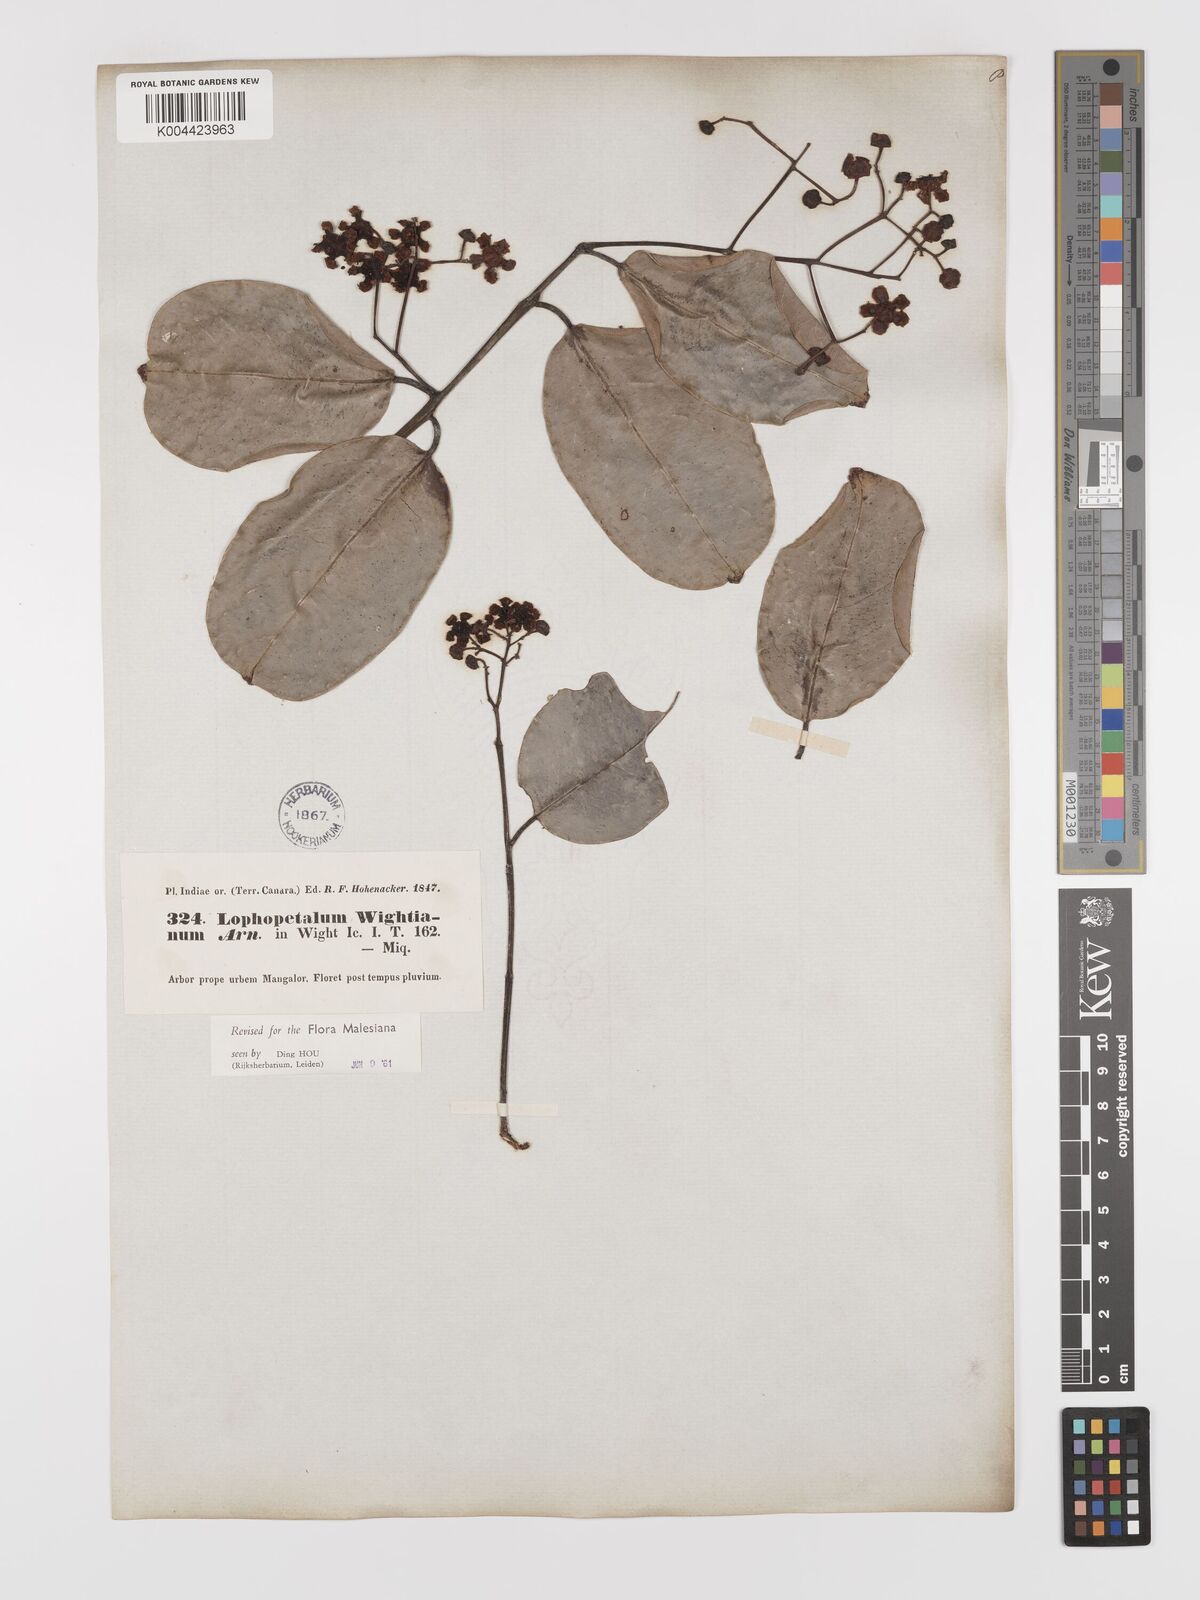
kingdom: Plantae
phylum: Tracheophyta
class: Magnoliopsida
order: Celastrales
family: Celastraceae
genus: Lophopetalum
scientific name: Lophopetalum wightianum
